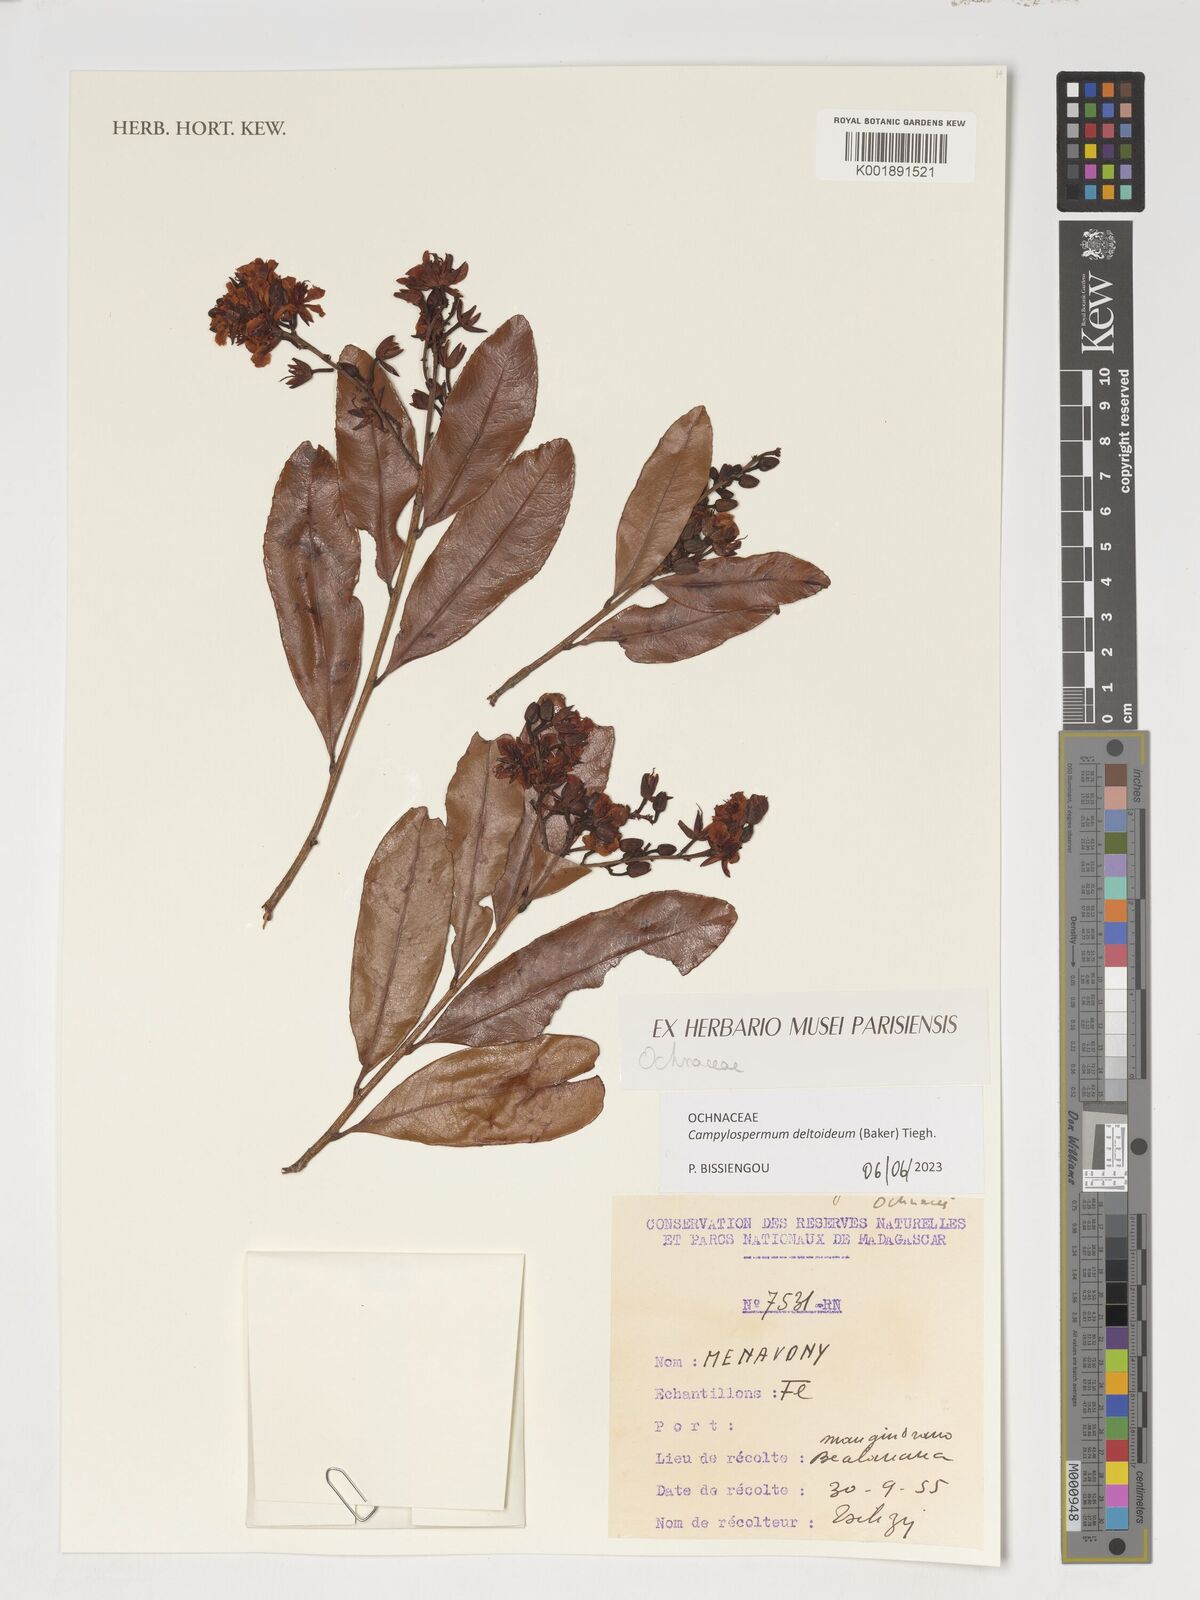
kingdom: Plantae
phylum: Tracheophyta
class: Magnoliopsida
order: Malpighiales
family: Ochnaceae
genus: Campylospermum
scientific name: Campylospermum deltoideum
